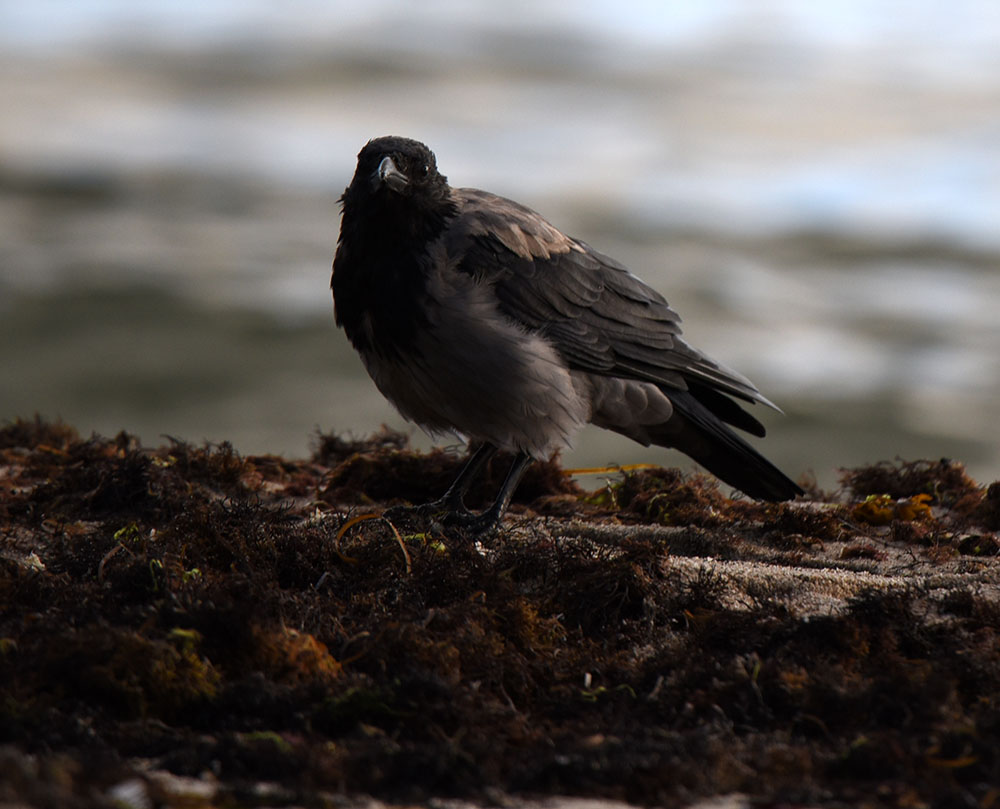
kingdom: Animalia
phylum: Chordata
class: Aves
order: Passeriformes
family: Corvidae
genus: Corvus
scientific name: Corvus cornix
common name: Hooded crow
